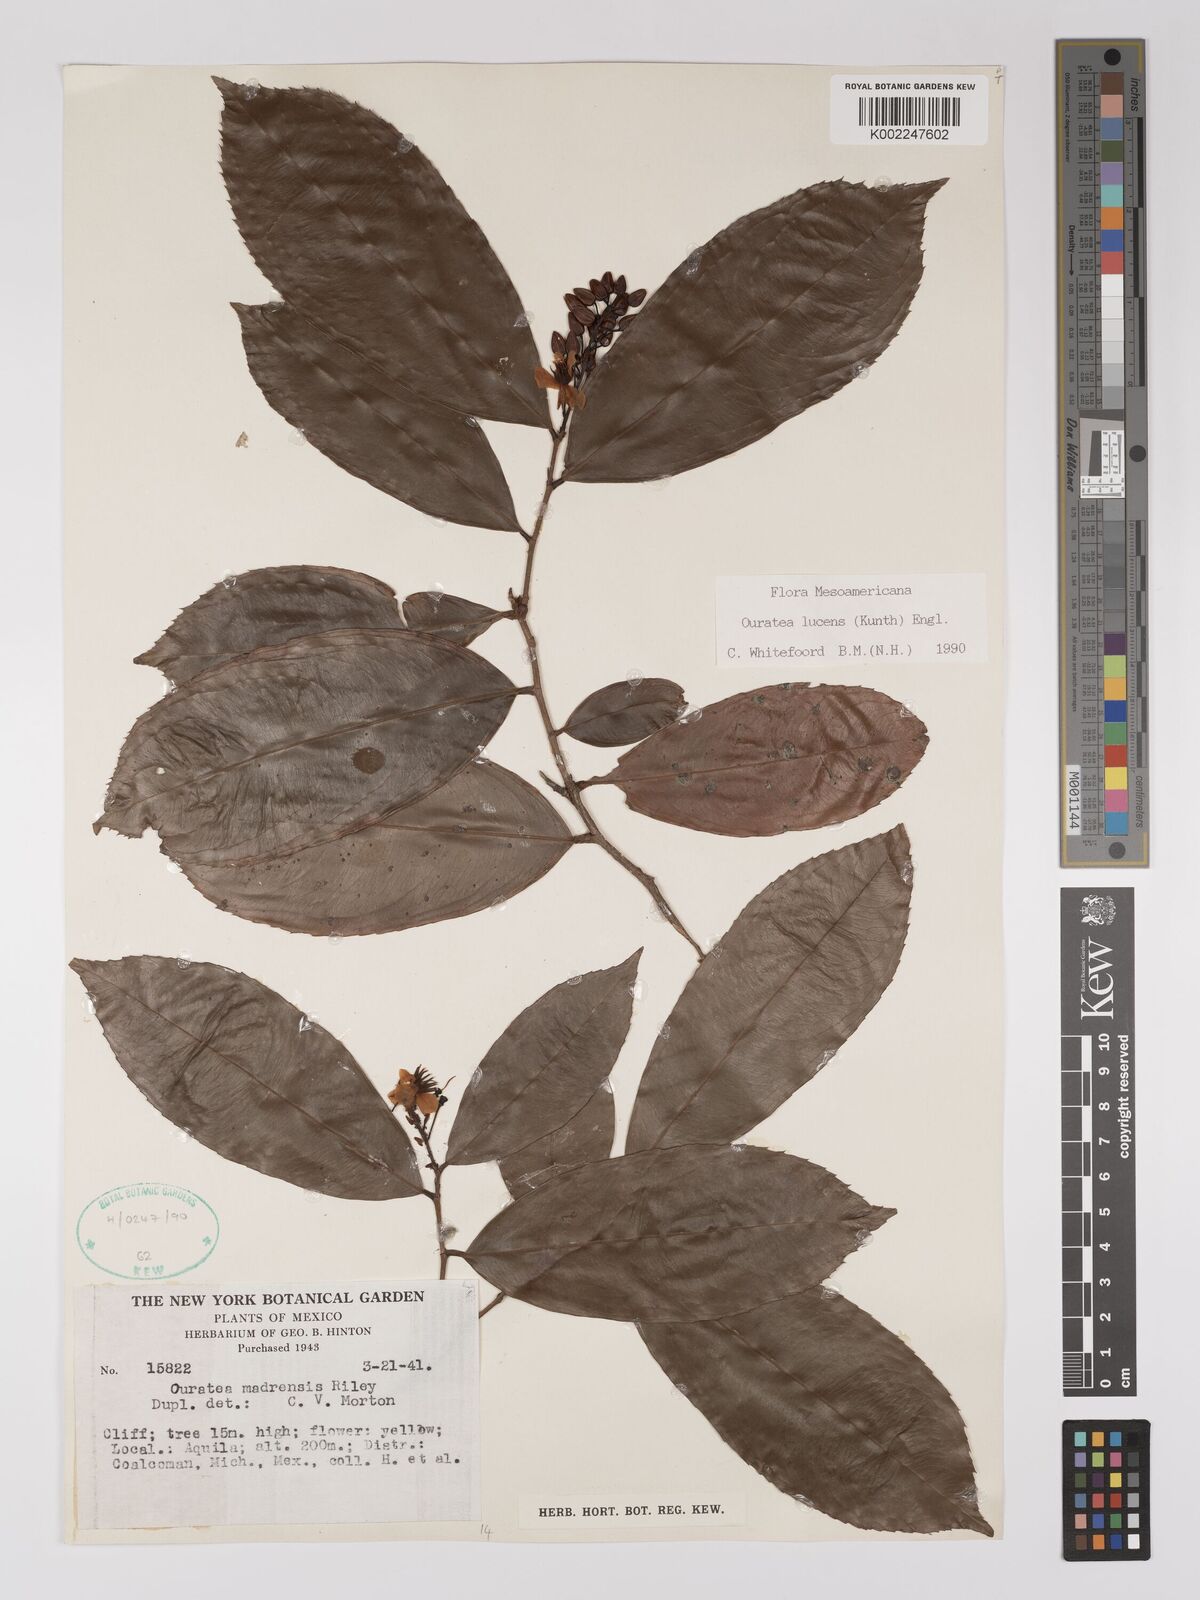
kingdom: Plantae
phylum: Tracheophyta
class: Magnoliopsida
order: Malpighiales
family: Ochnaceae
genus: Ouratea
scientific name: Ouratea lucens
